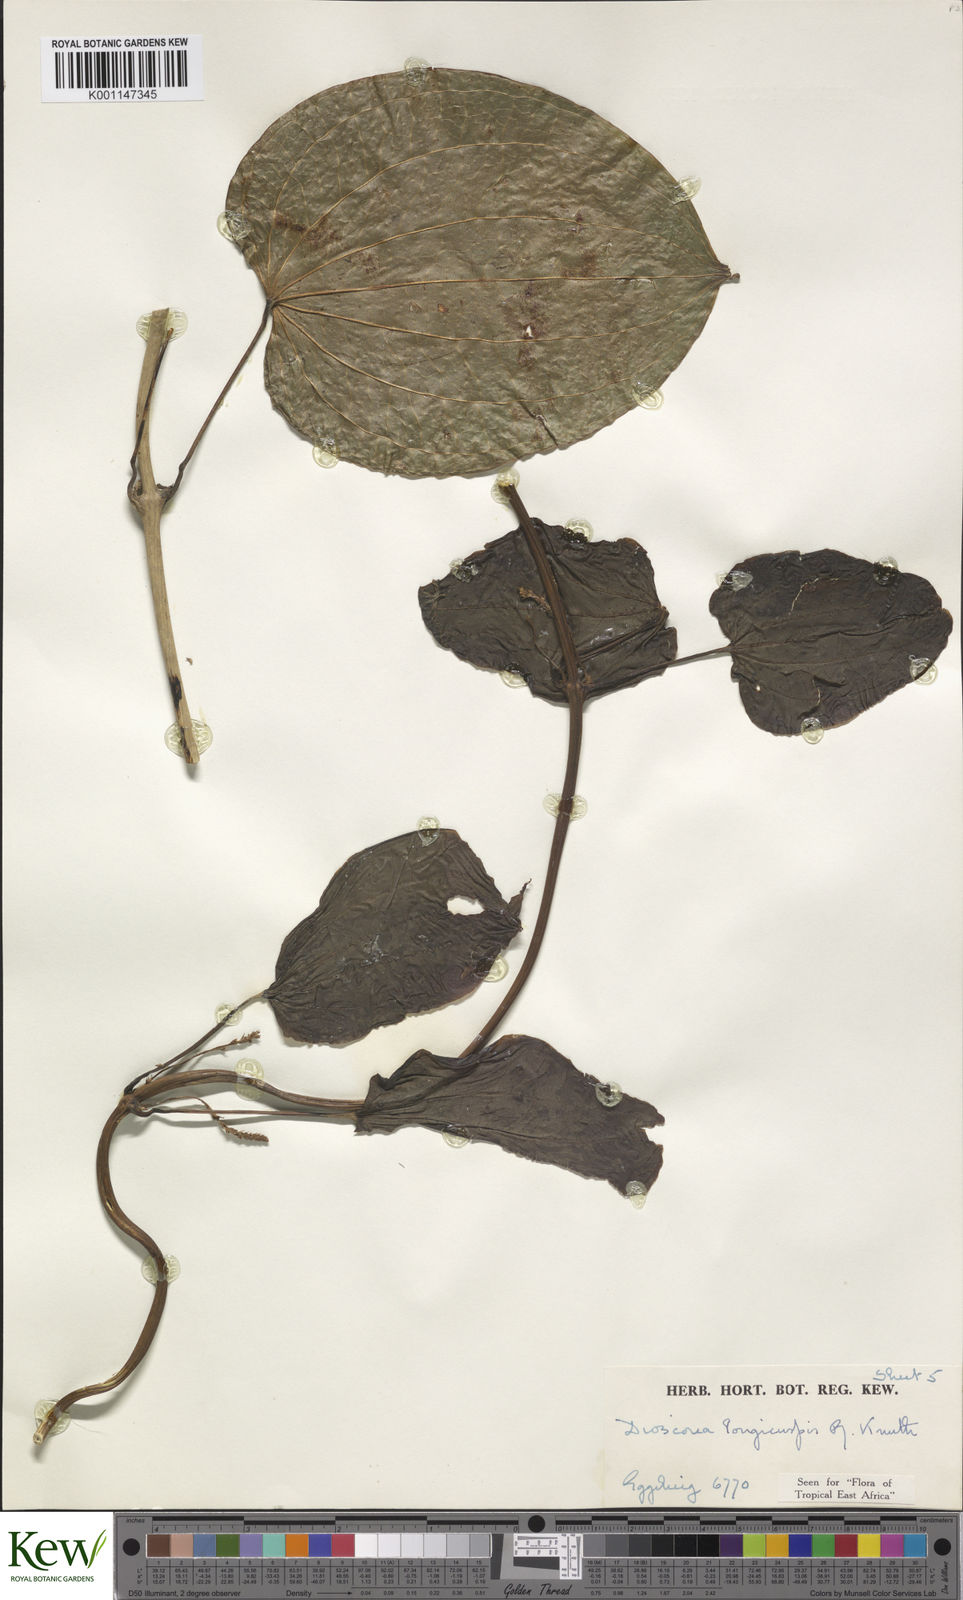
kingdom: Plantae
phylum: Tracheophyta
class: Liliopsida
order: Dioscoreales
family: Dioscoreaceae
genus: Dioscorea
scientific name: Dioscorea longicuspis
